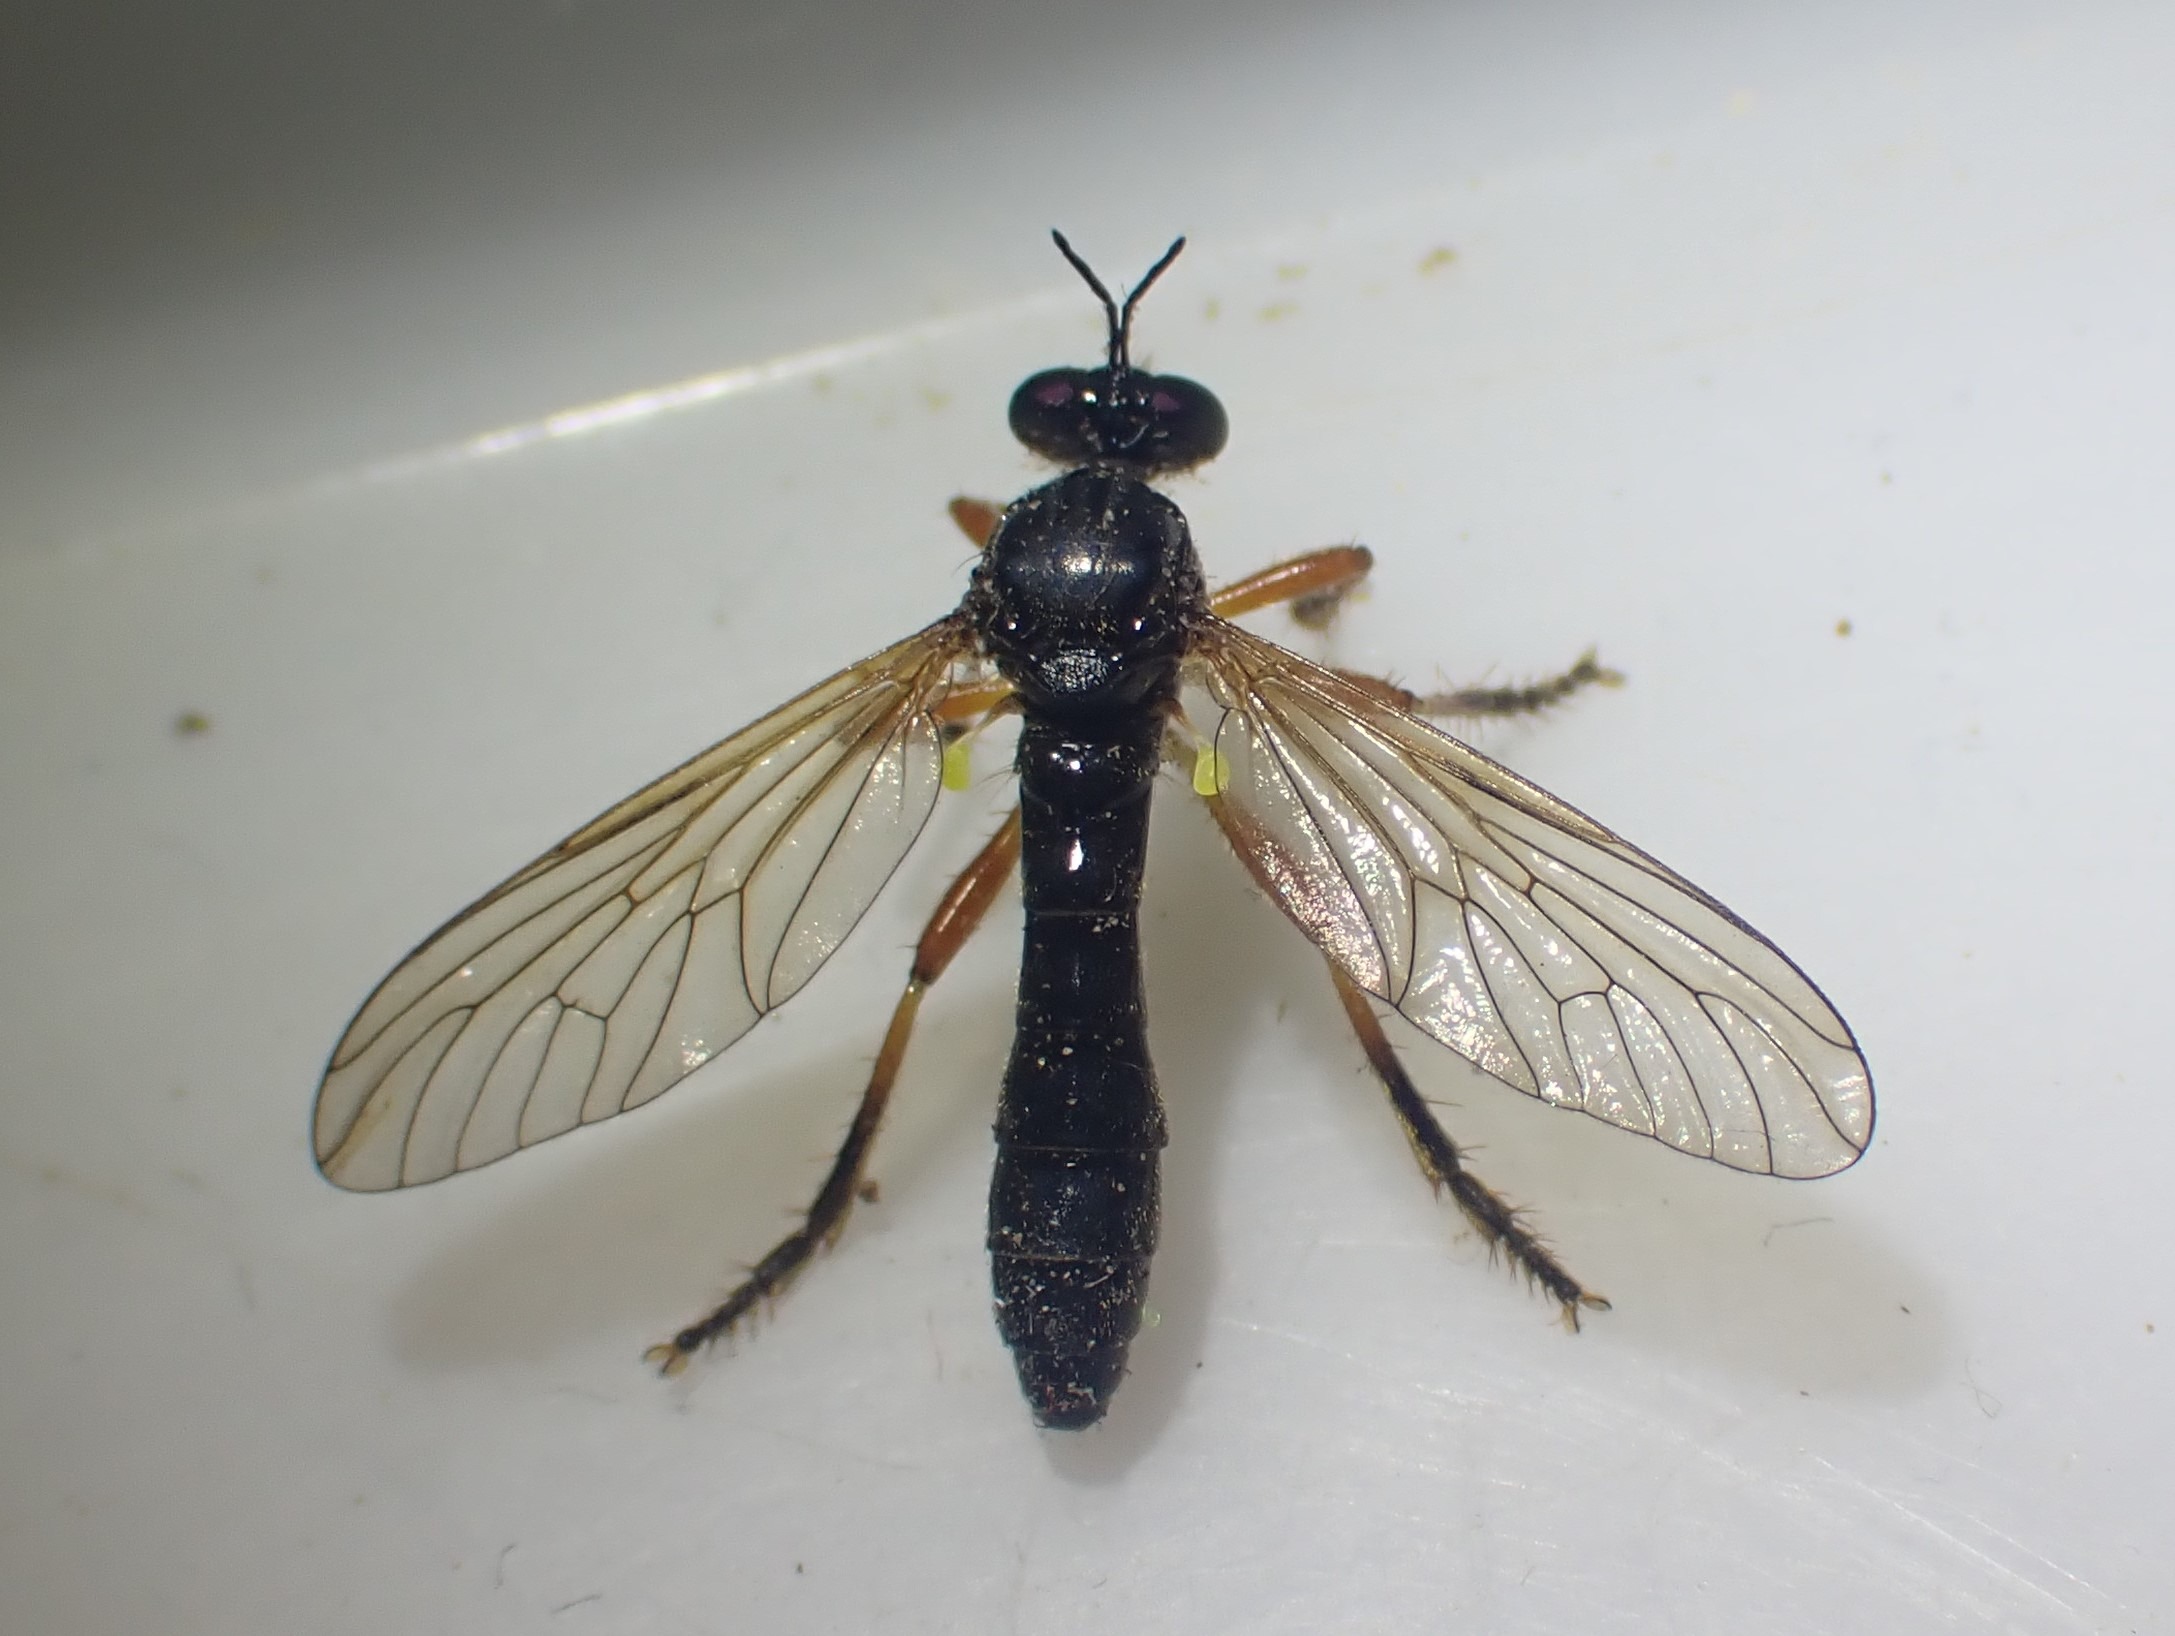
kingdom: Animalia
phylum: Arthropoda
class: Insecta
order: Diptera
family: Asilidae
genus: Dioctria
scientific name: Dioctria cothurnata
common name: Pukkelrygget engrovflue
